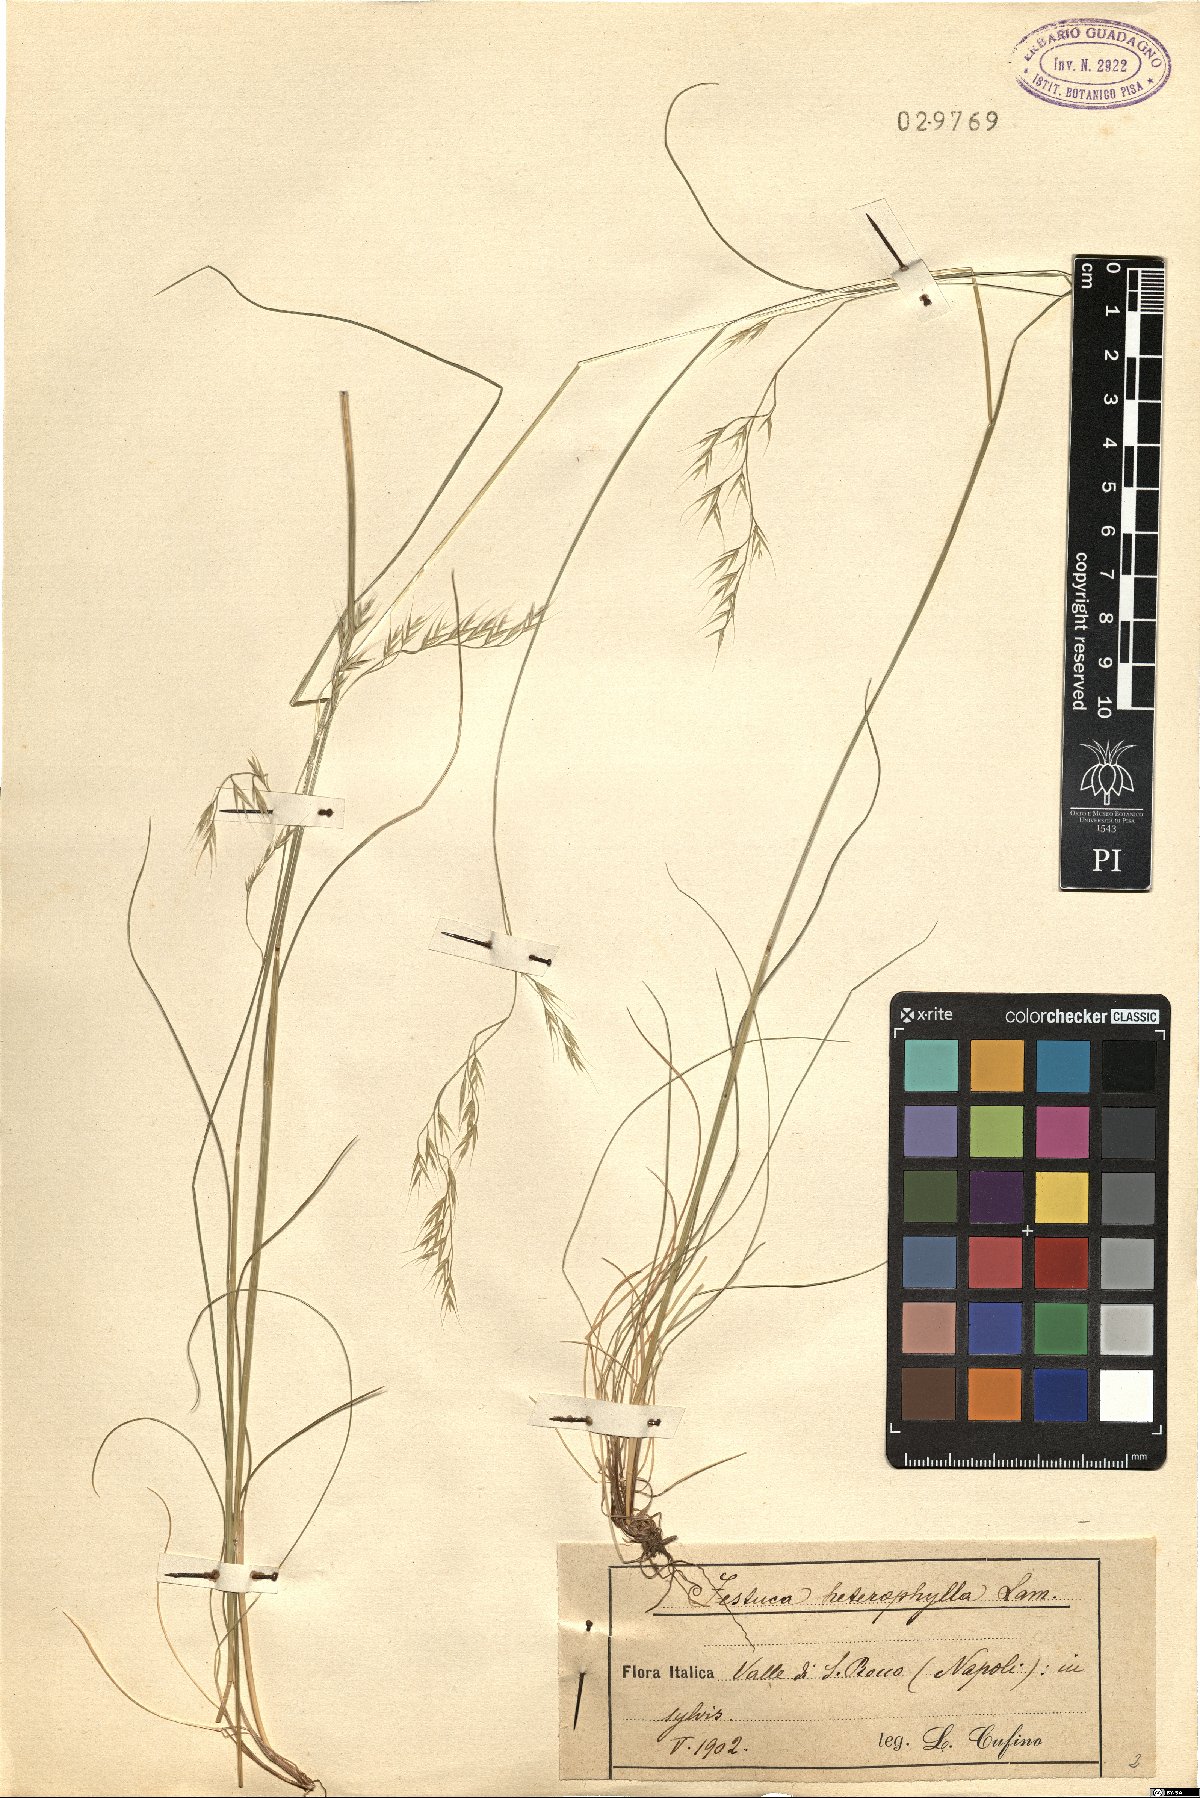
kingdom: Plantae
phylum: Tracheophyta
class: Liliopsida
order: Poales
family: Poaceae
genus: Festuca
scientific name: Festuca heterophylla
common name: Various-leaved fescue
